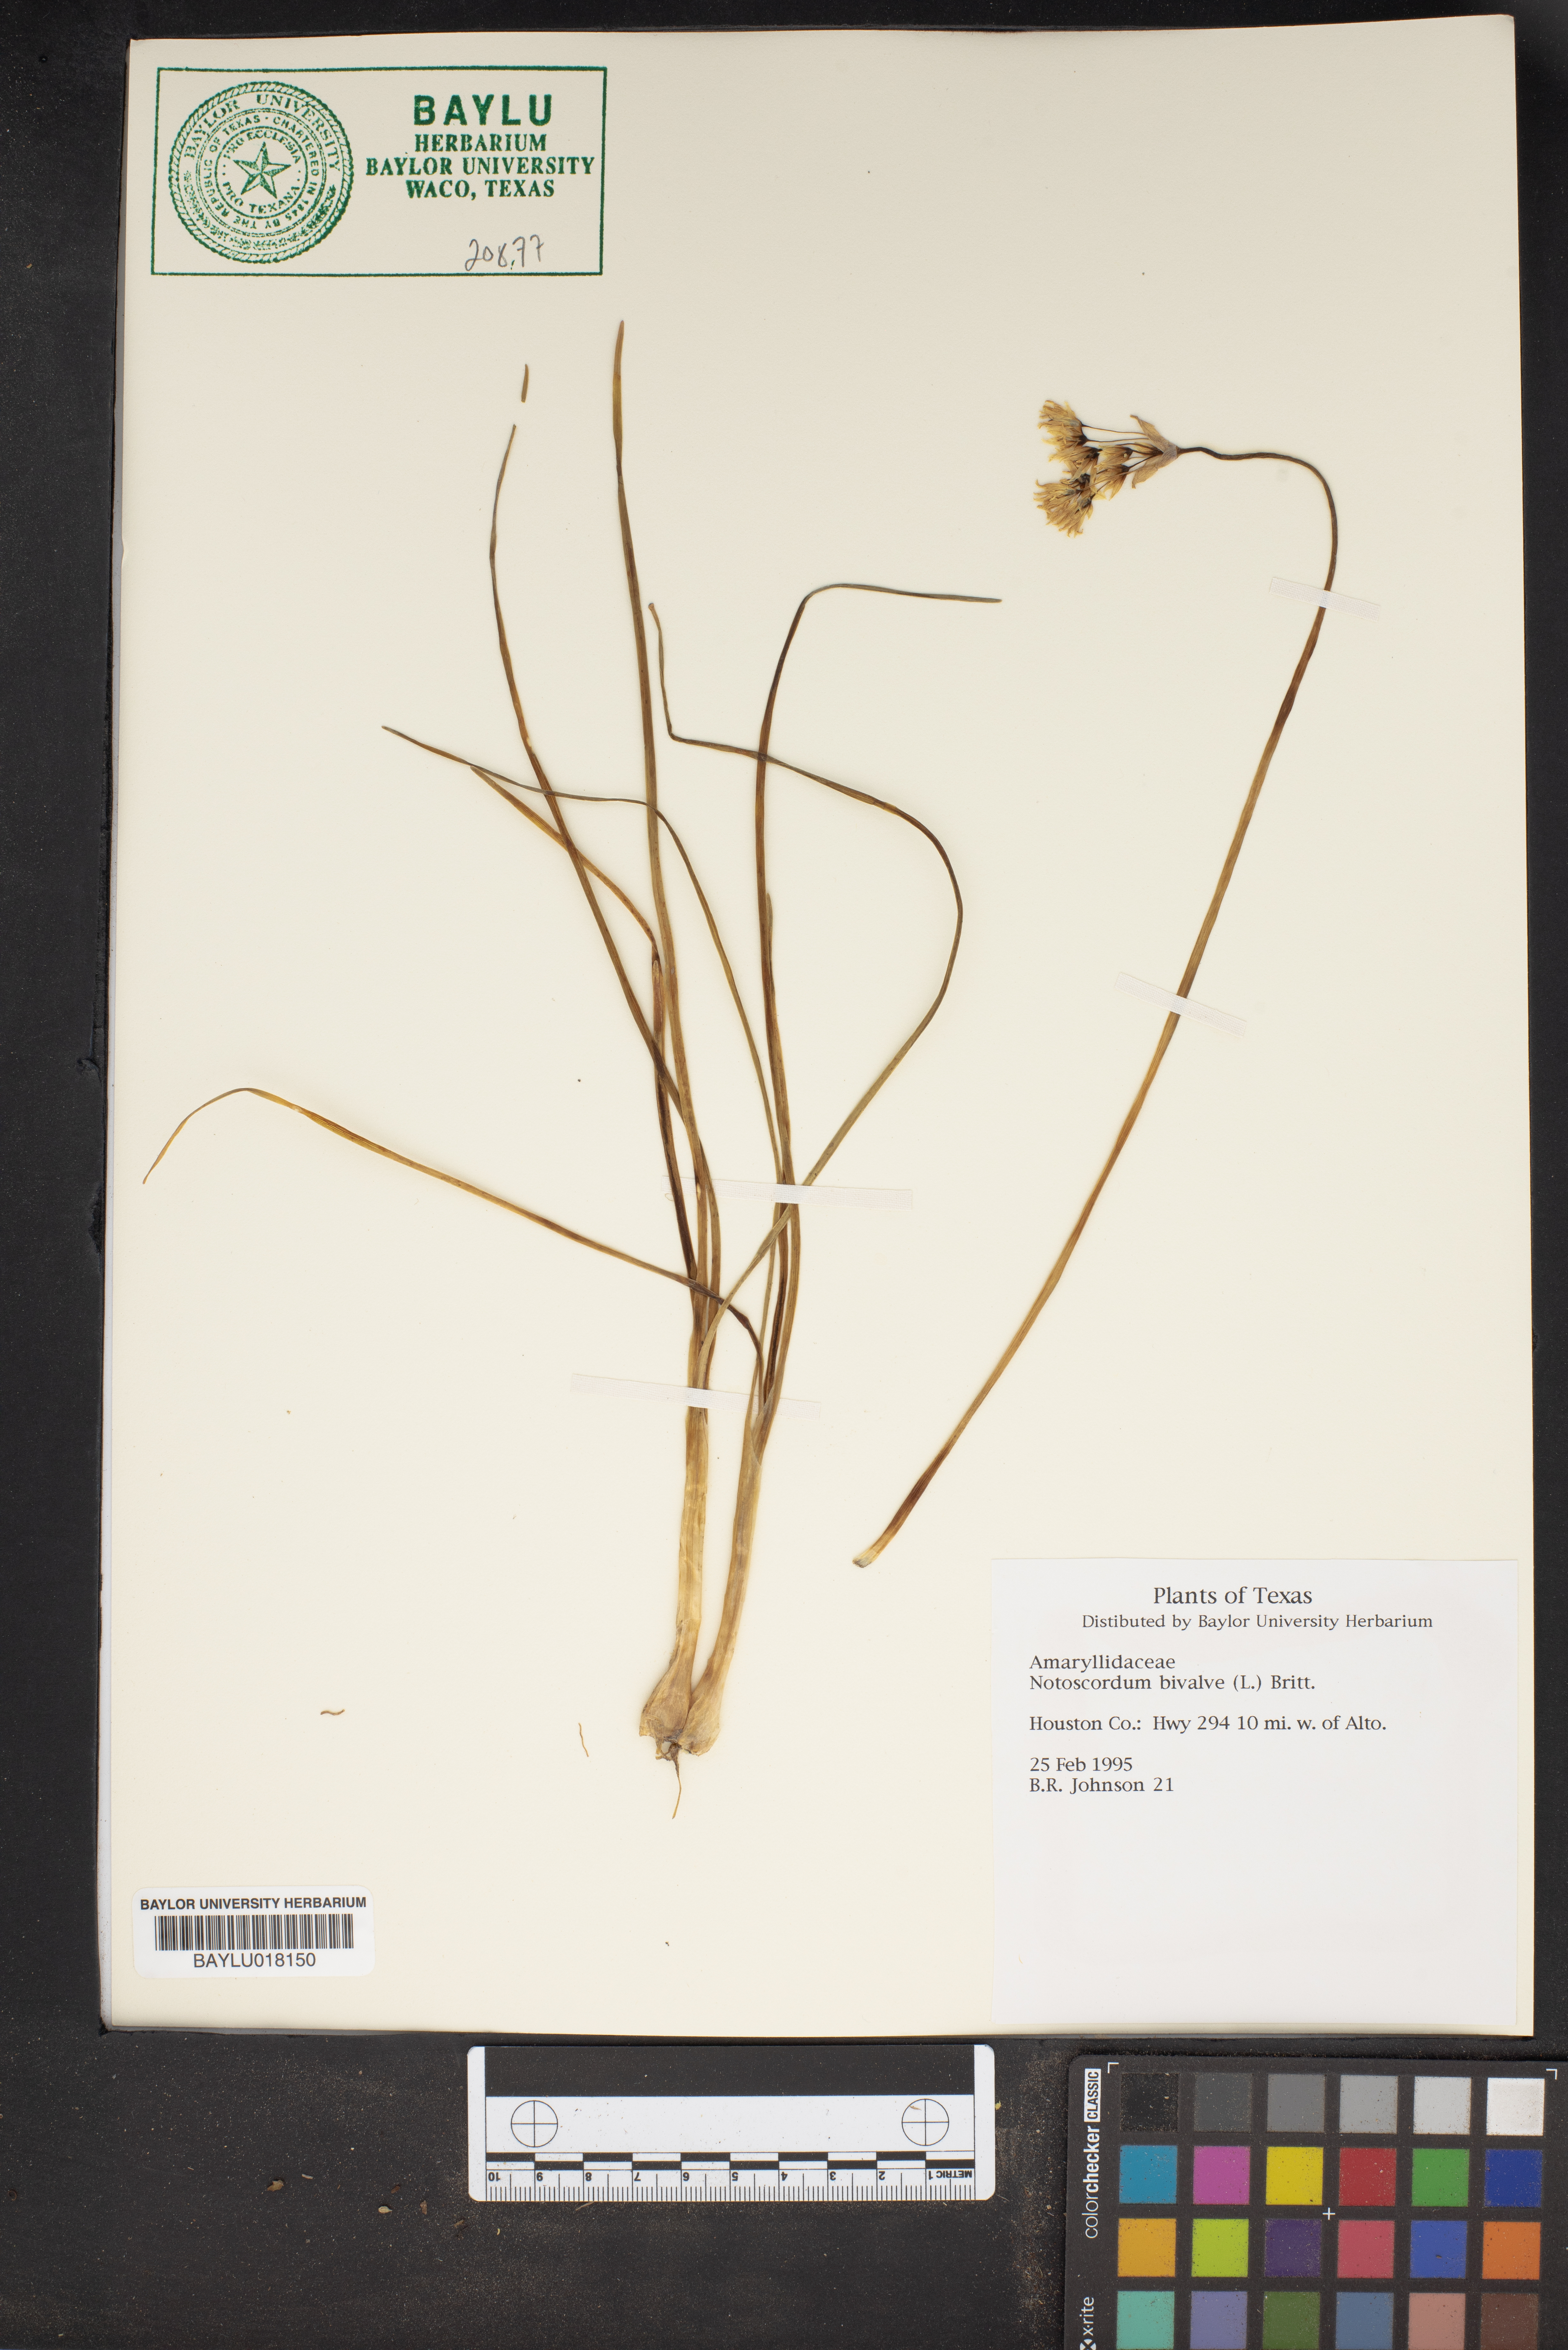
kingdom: Plantae
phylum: Tracheophyta
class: Liliopsida
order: Asparagales
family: Amaryllidaceae
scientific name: Amaryllidaceae
